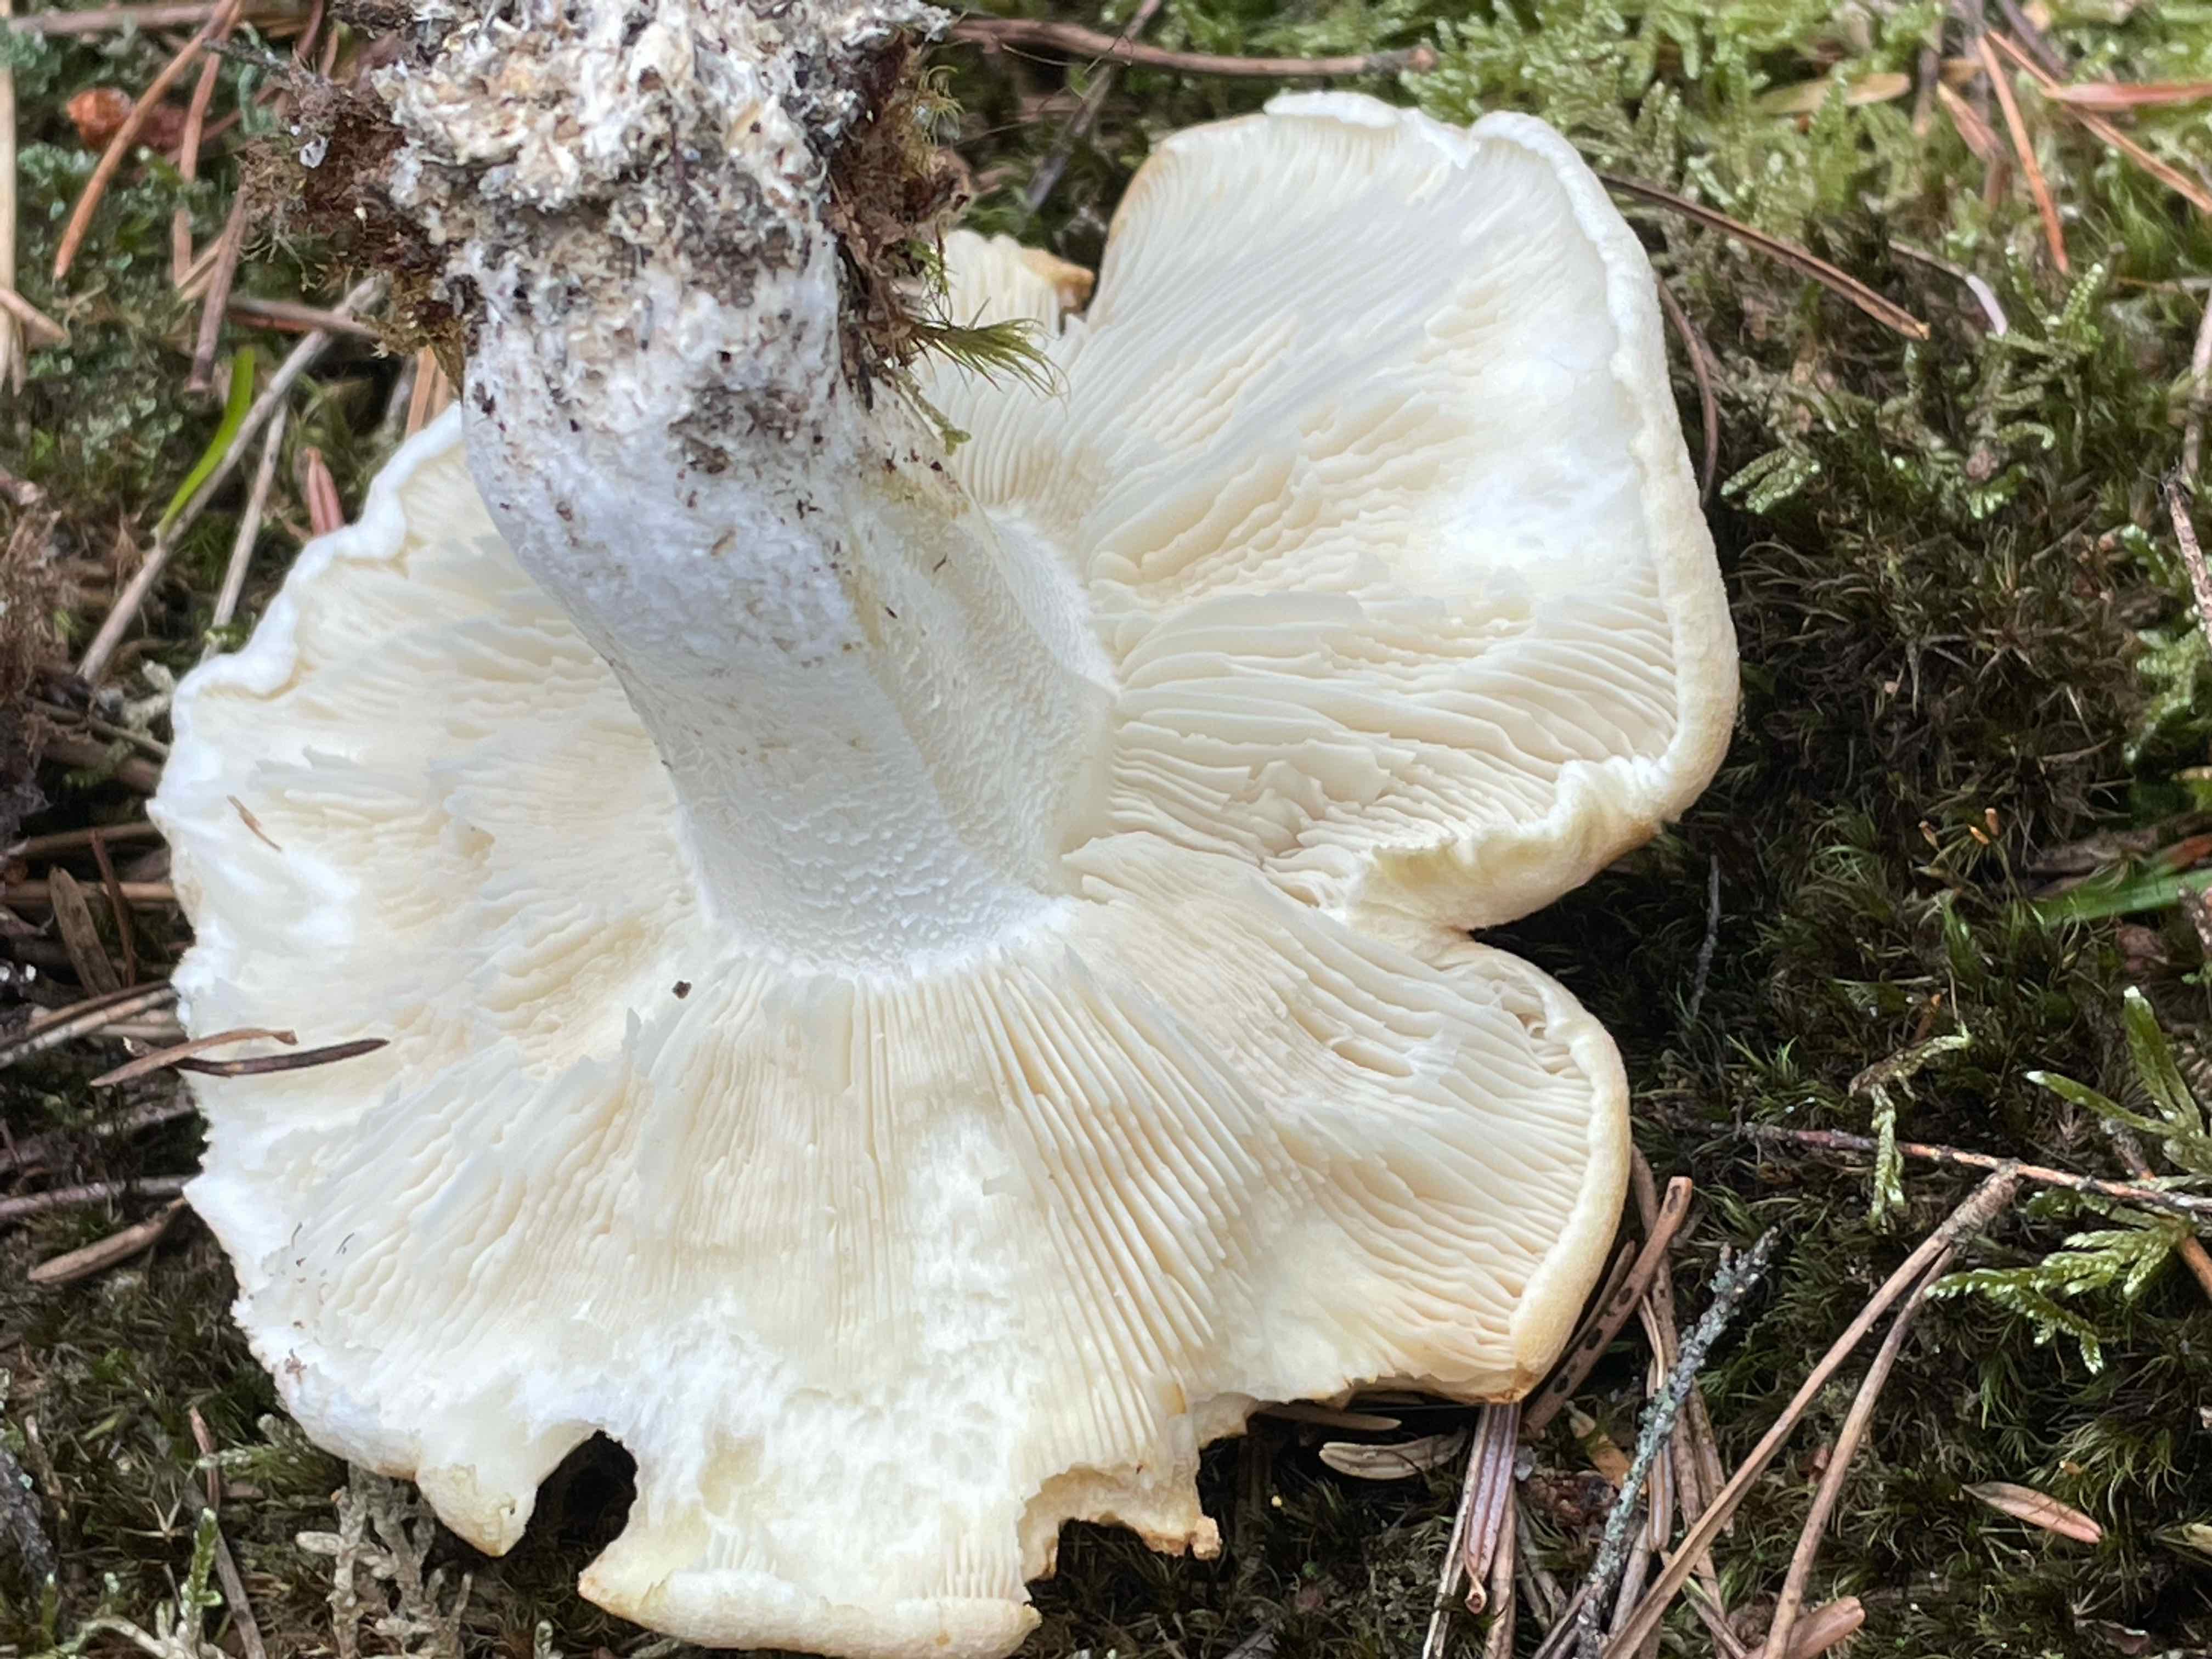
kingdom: Fungi
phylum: Basidiomycota
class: Agaricomycetes
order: Agaricales
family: Tricholomataceae
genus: Tricholoma
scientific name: Tricholoma apium
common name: suppe-ridderhat
